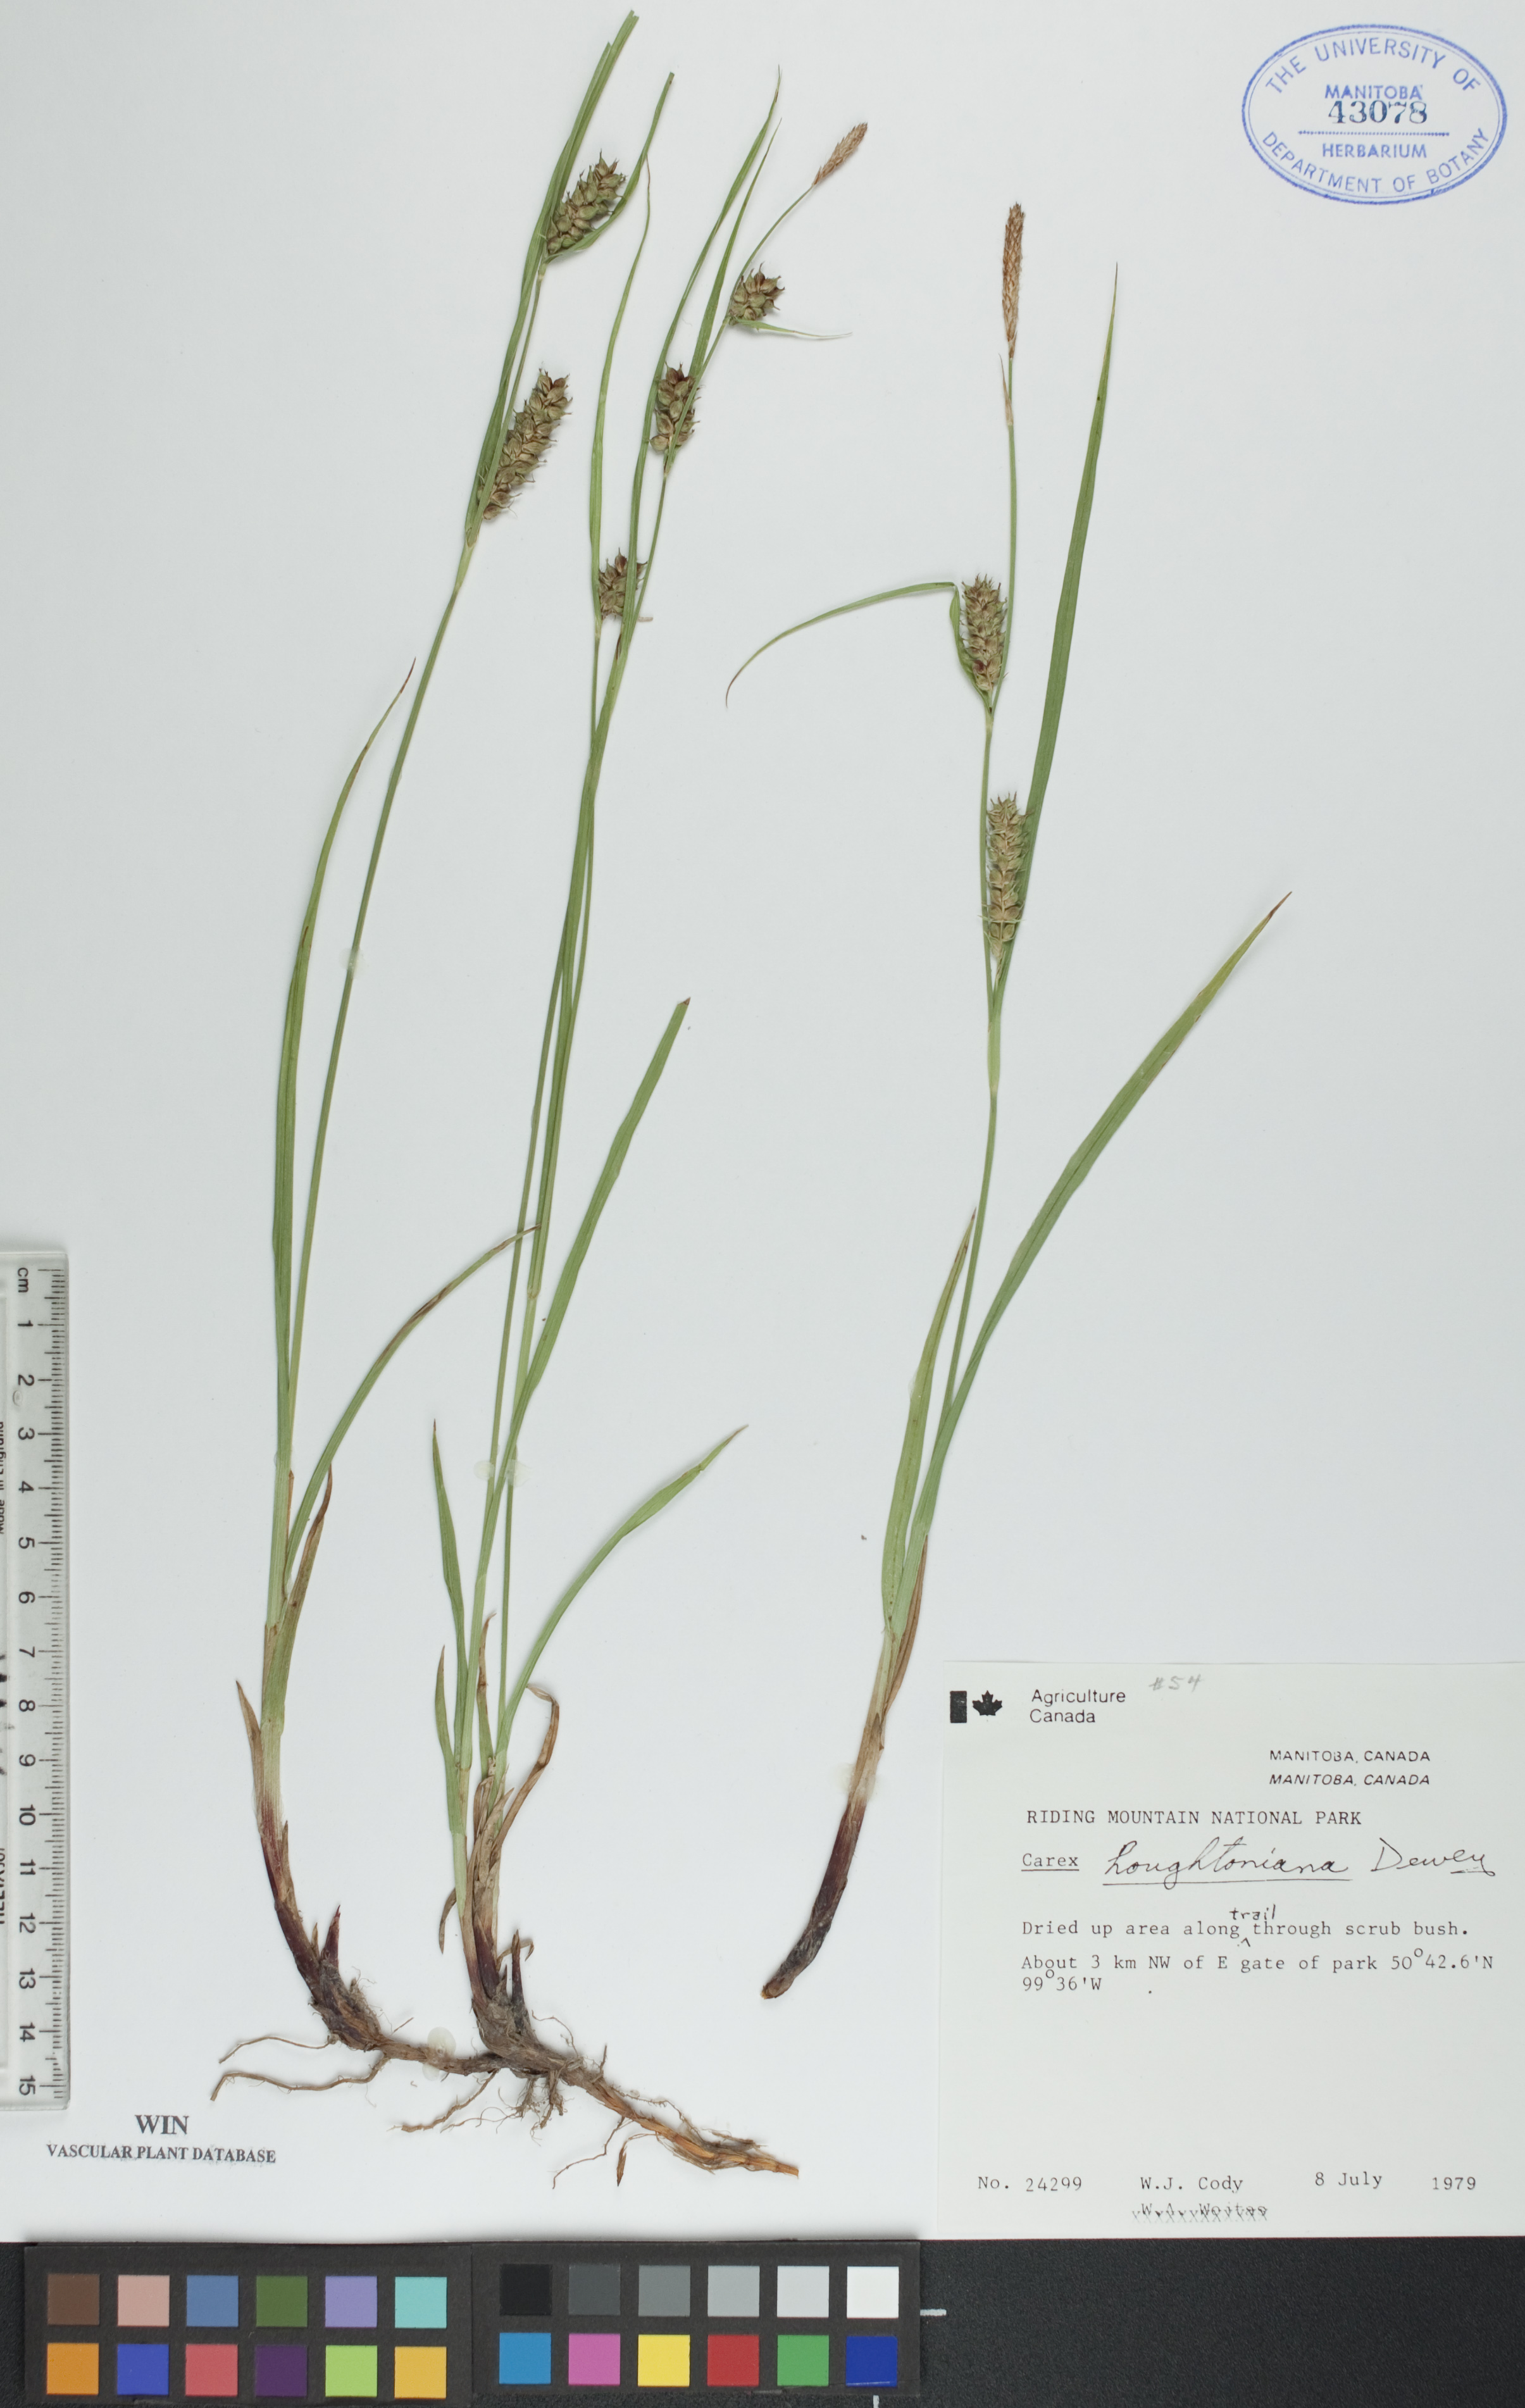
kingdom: Plantae
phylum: Tracheophyta
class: Liliopsida
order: Poales
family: Cyperaceae
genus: Carex
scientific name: Carex houghtoniana
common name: Houghton's sedge
